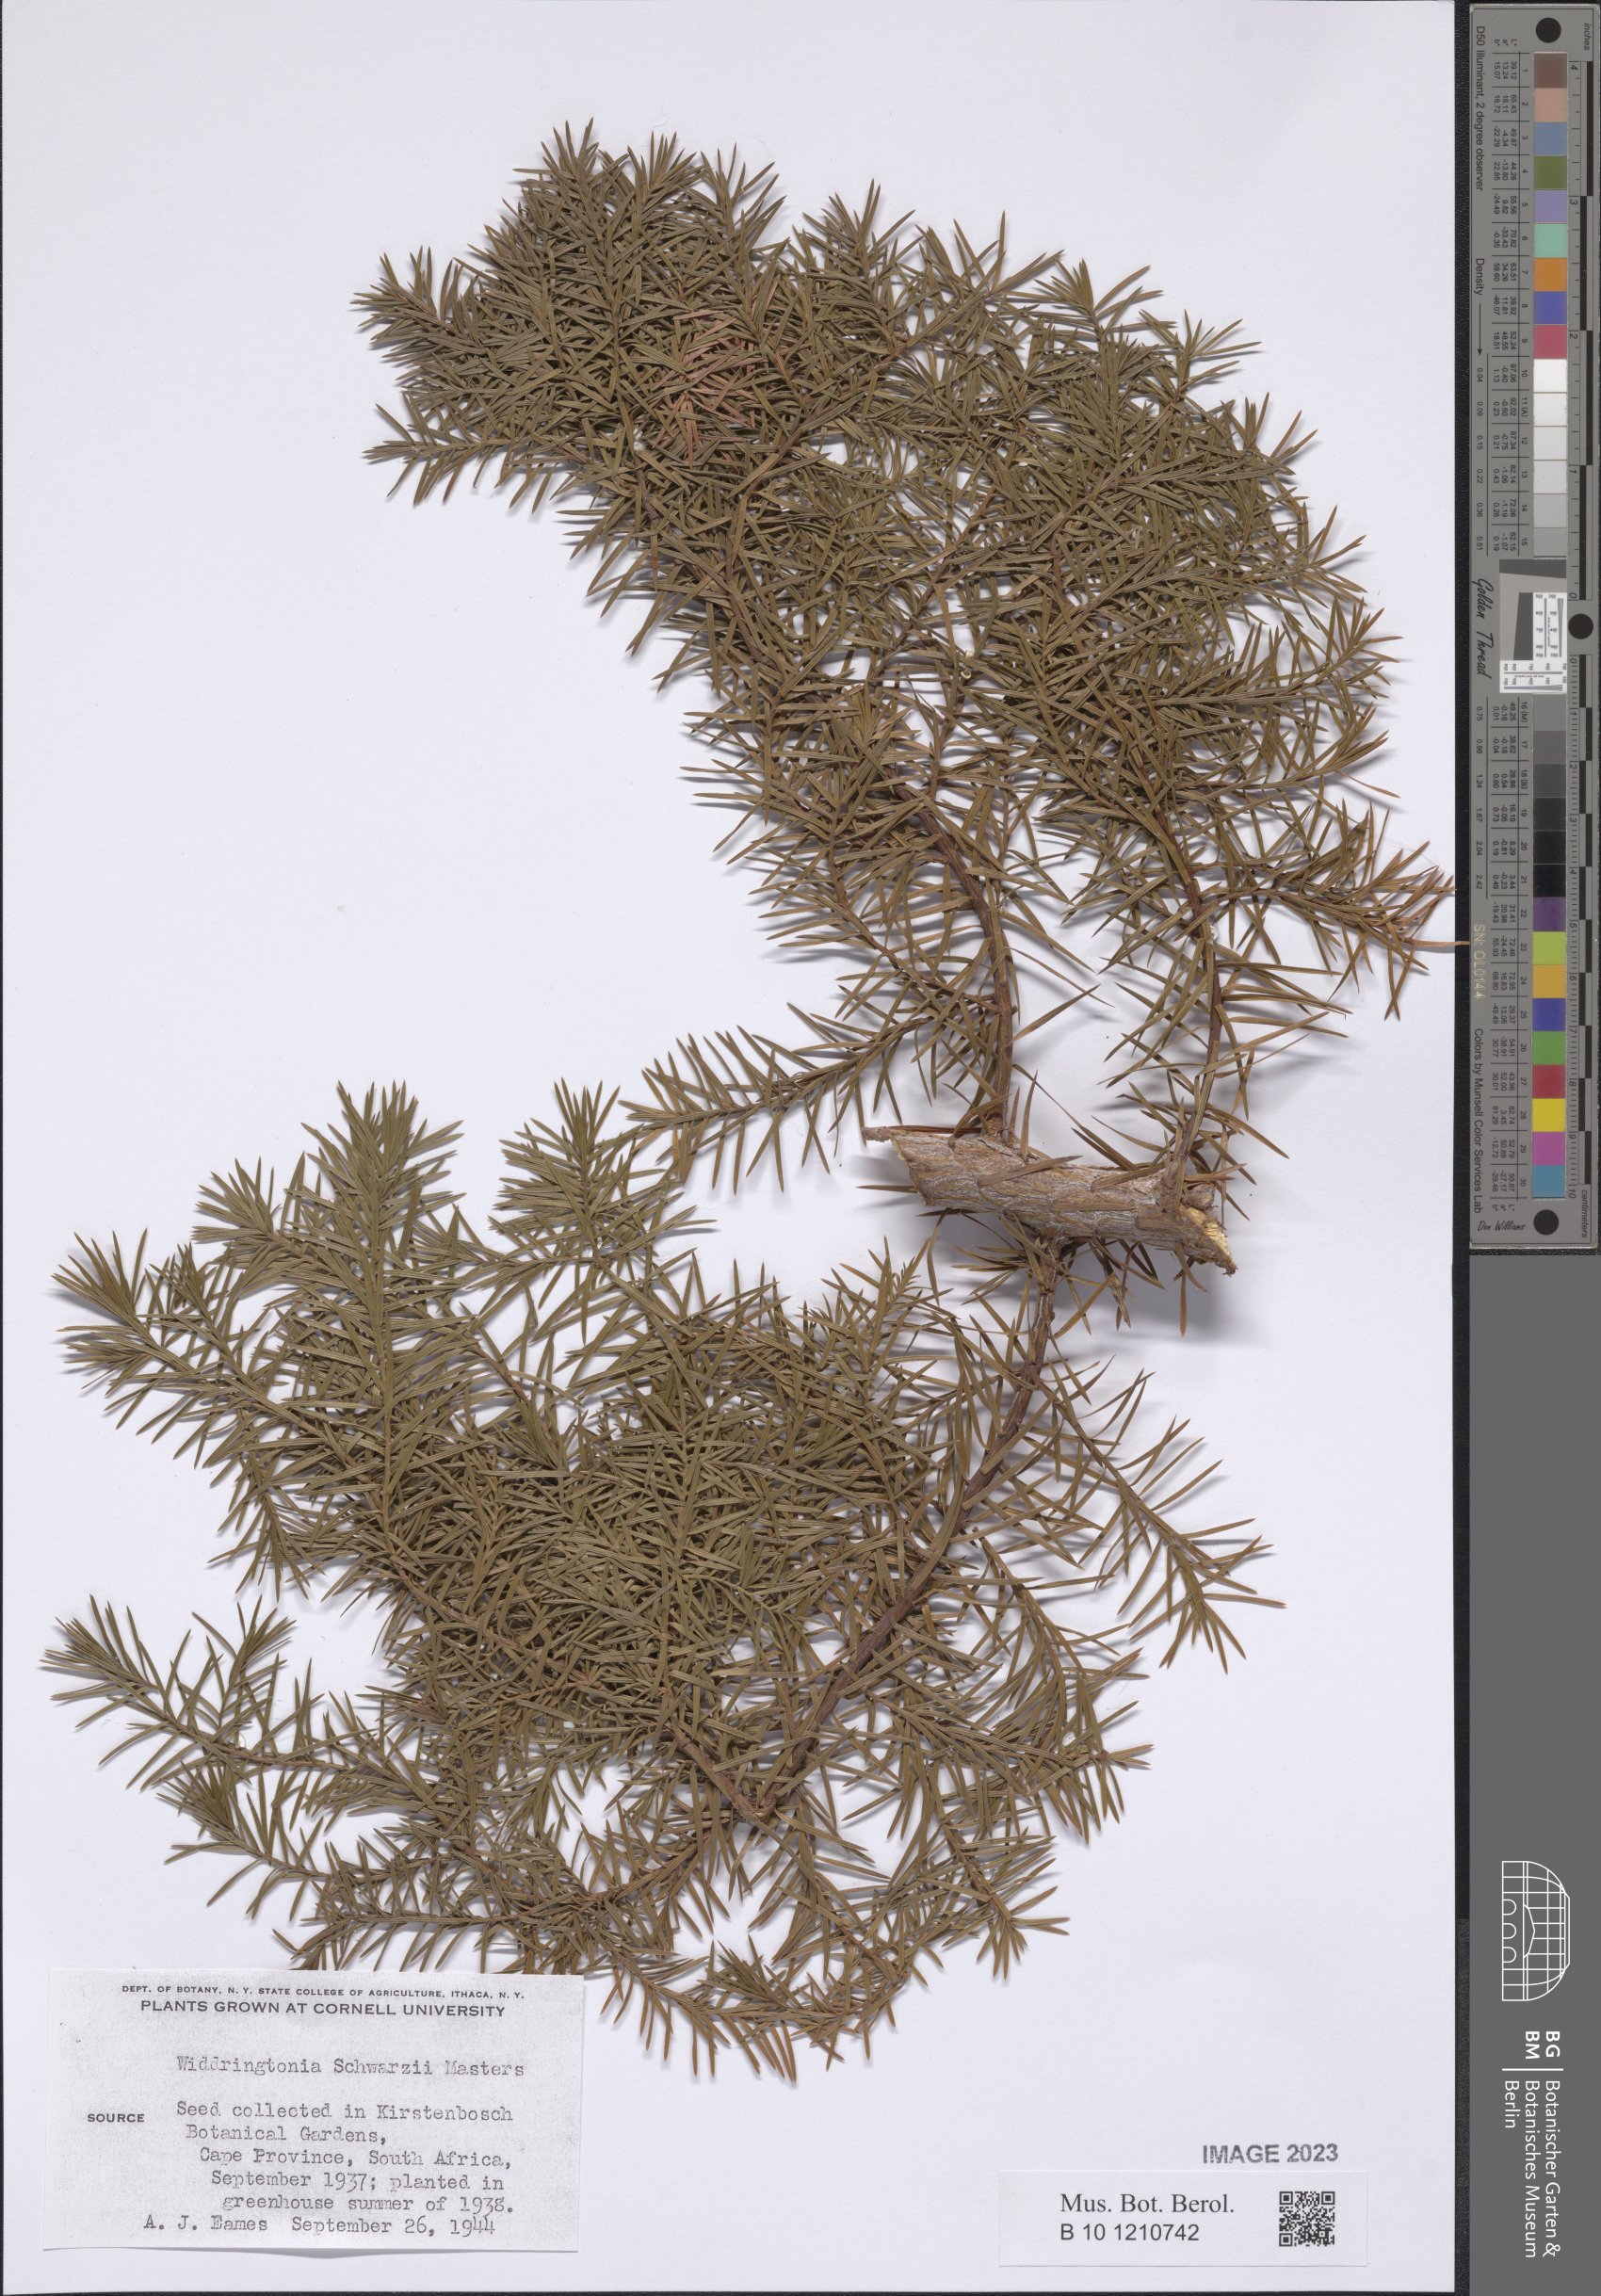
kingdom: Plantae
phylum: Tracheophyta
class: Pinopsida
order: Pinales
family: Cupressaceae
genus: Widdringtonia
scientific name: Widdringtonia schwarzii
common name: Baviaans cedar
